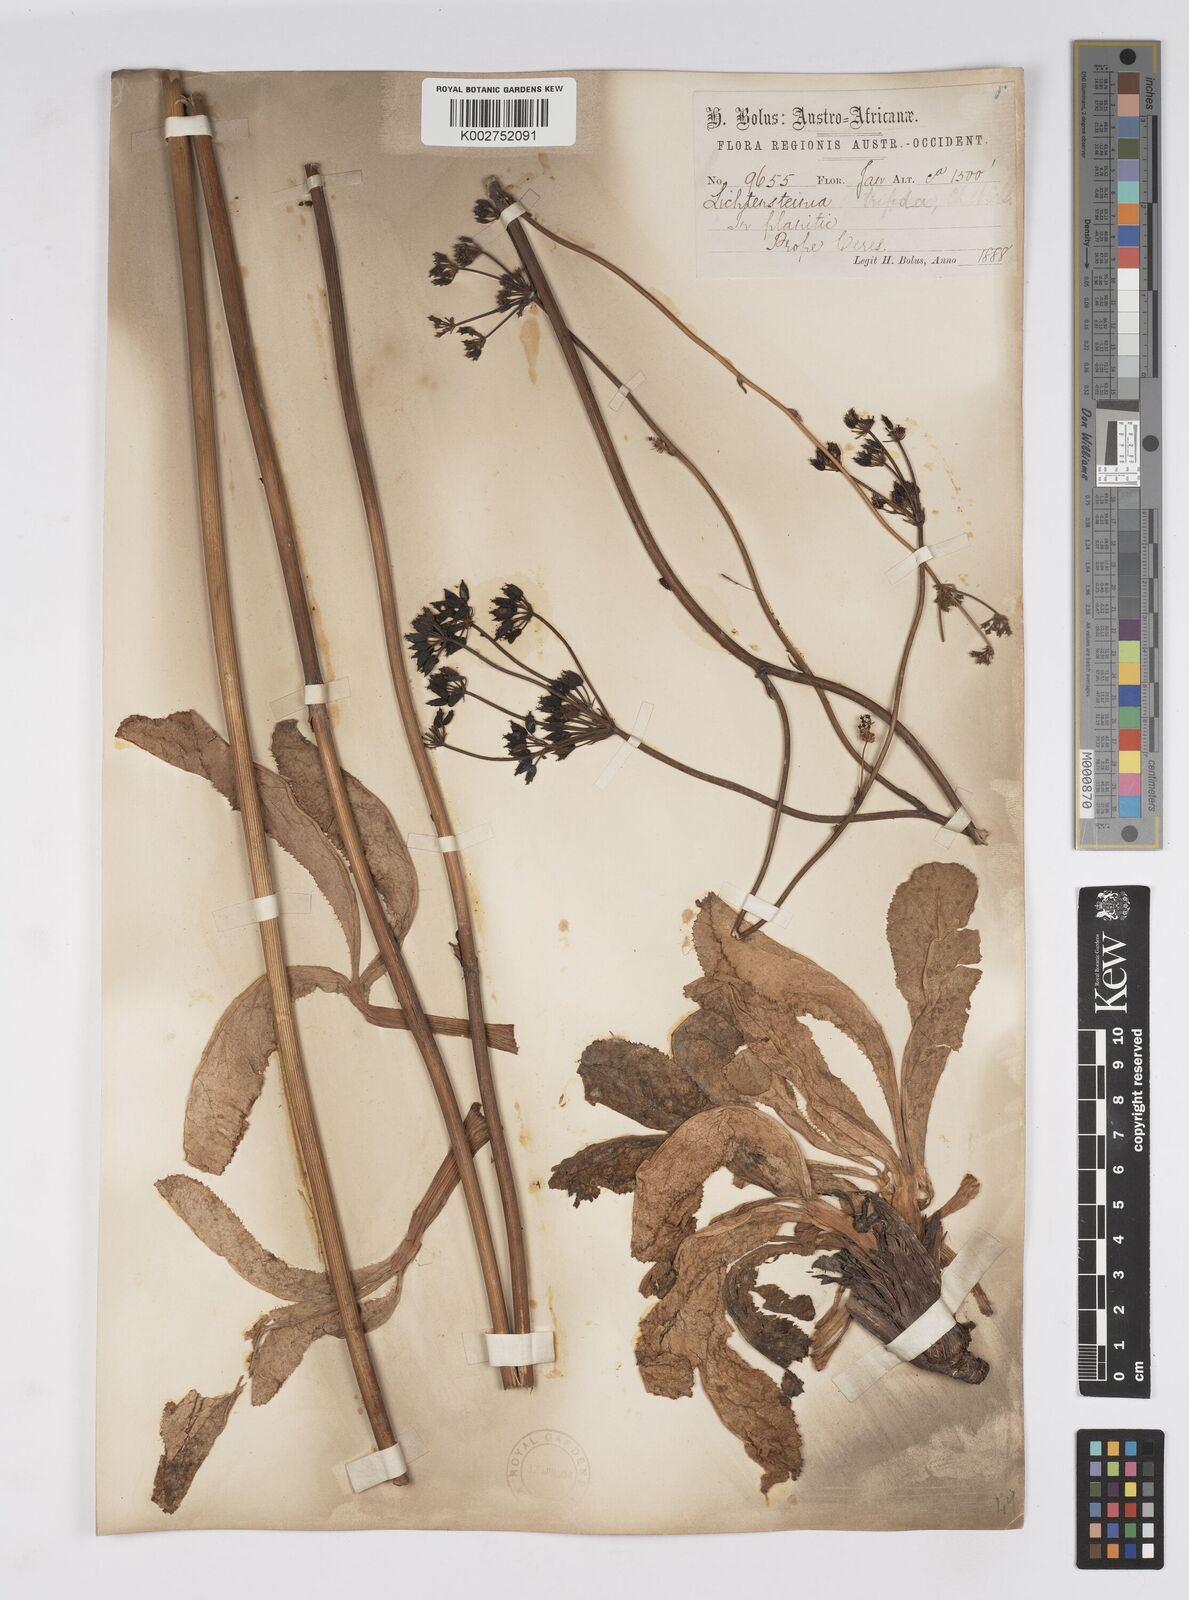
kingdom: Plantae
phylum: Tracheophyta
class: Magnoliopsida
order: Apiales
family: Apiaceae
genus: Lichtensteinia
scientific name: Lichtensteinia trifida
